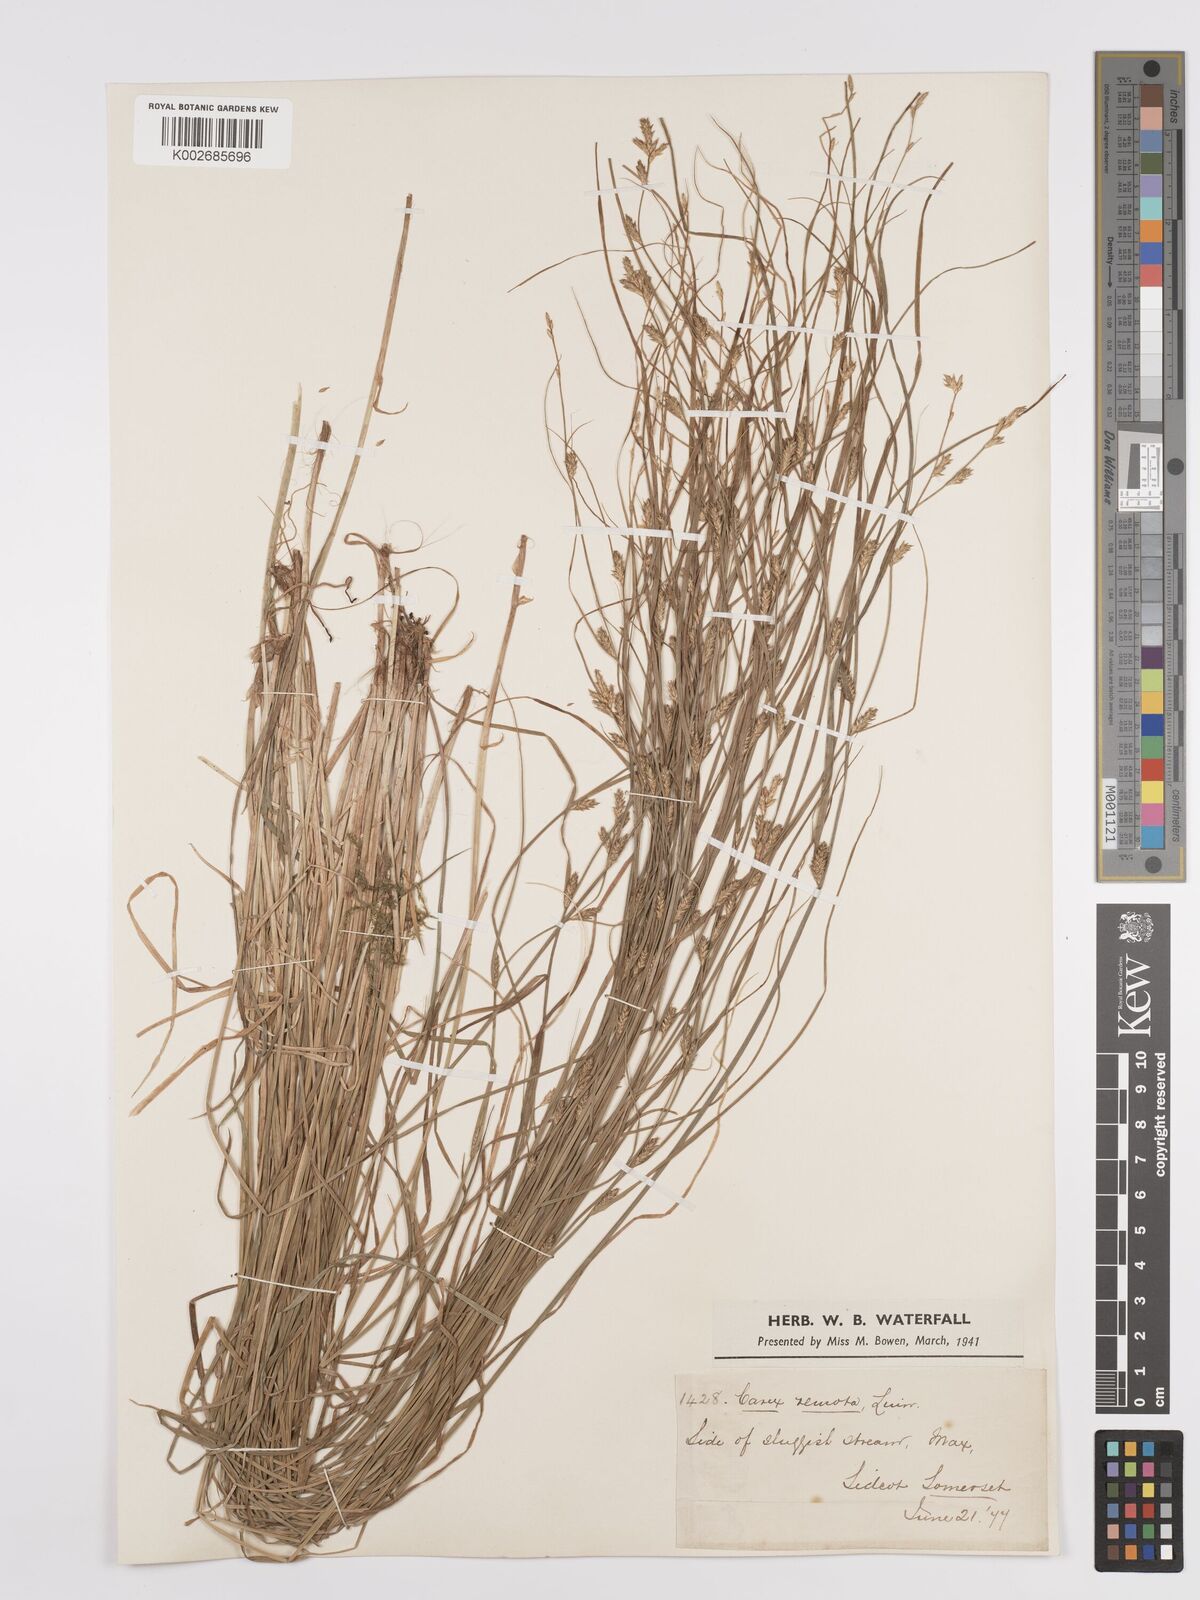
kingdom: Plantae
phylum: Tracheophyta
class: Liliopsida
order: Poales
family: Cyperaceae
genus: Carex
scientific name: Carex remota
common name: Remote sedge
